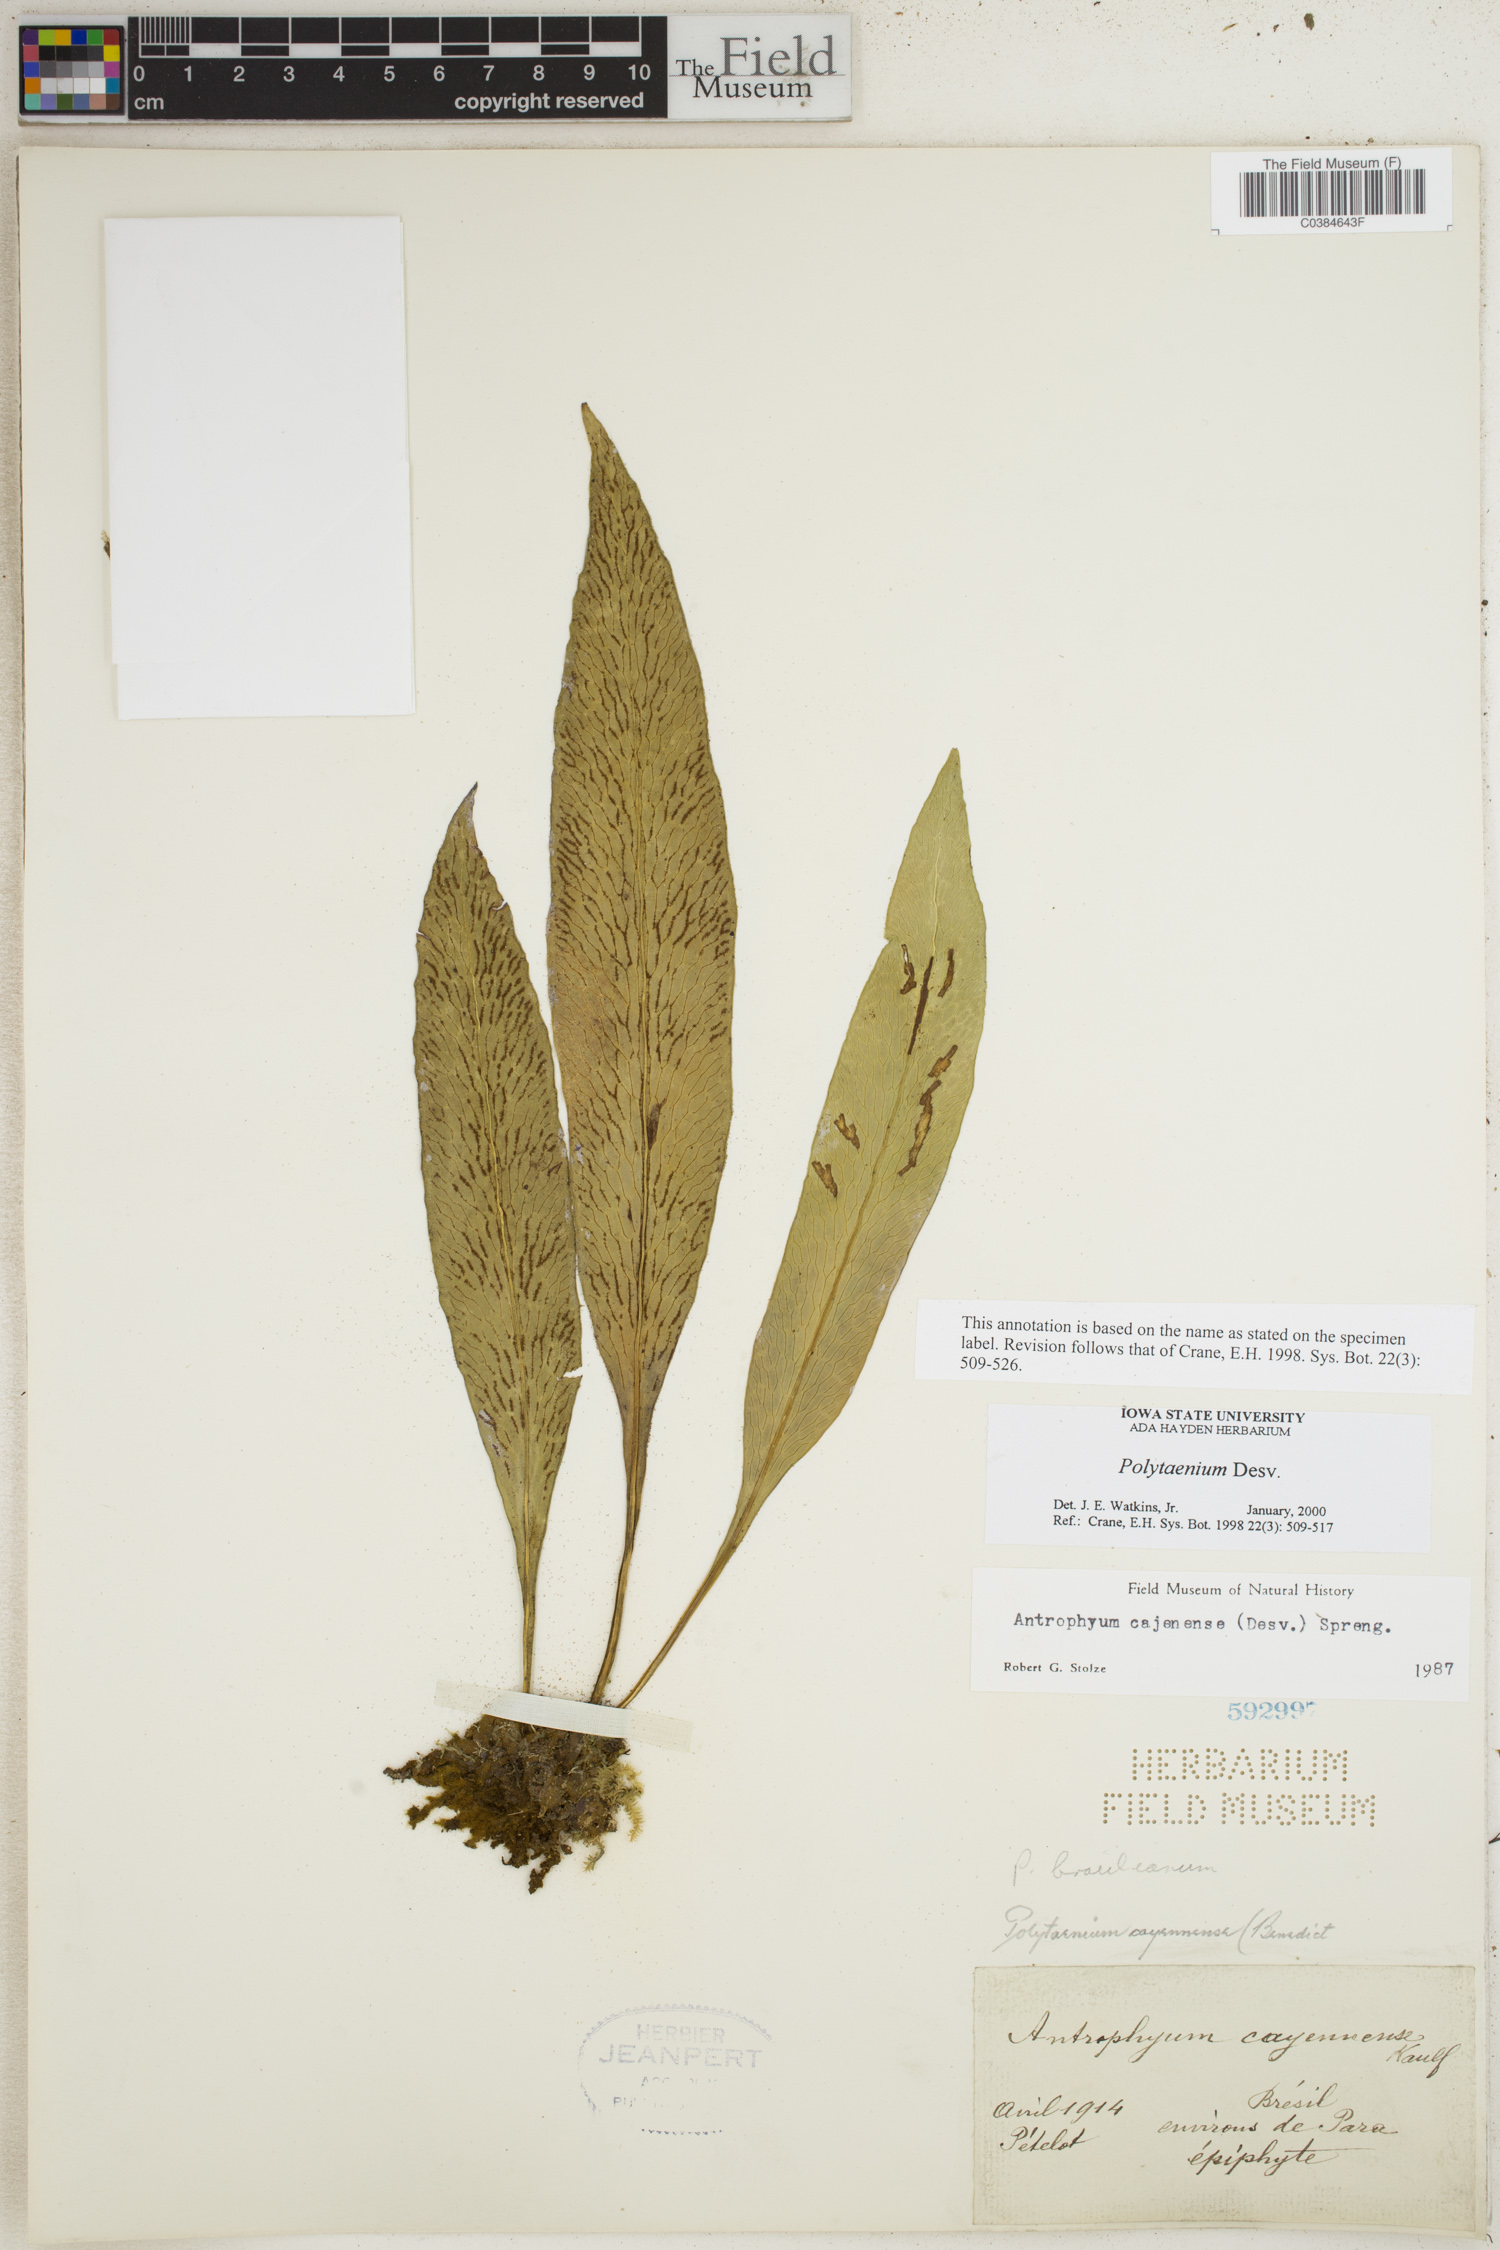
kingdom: Plantae
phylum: Tracheophyta
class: Polypodiopsida
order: Polypodiales
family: Pteridaceae
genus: Polytaenium
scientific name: Polytaenium
